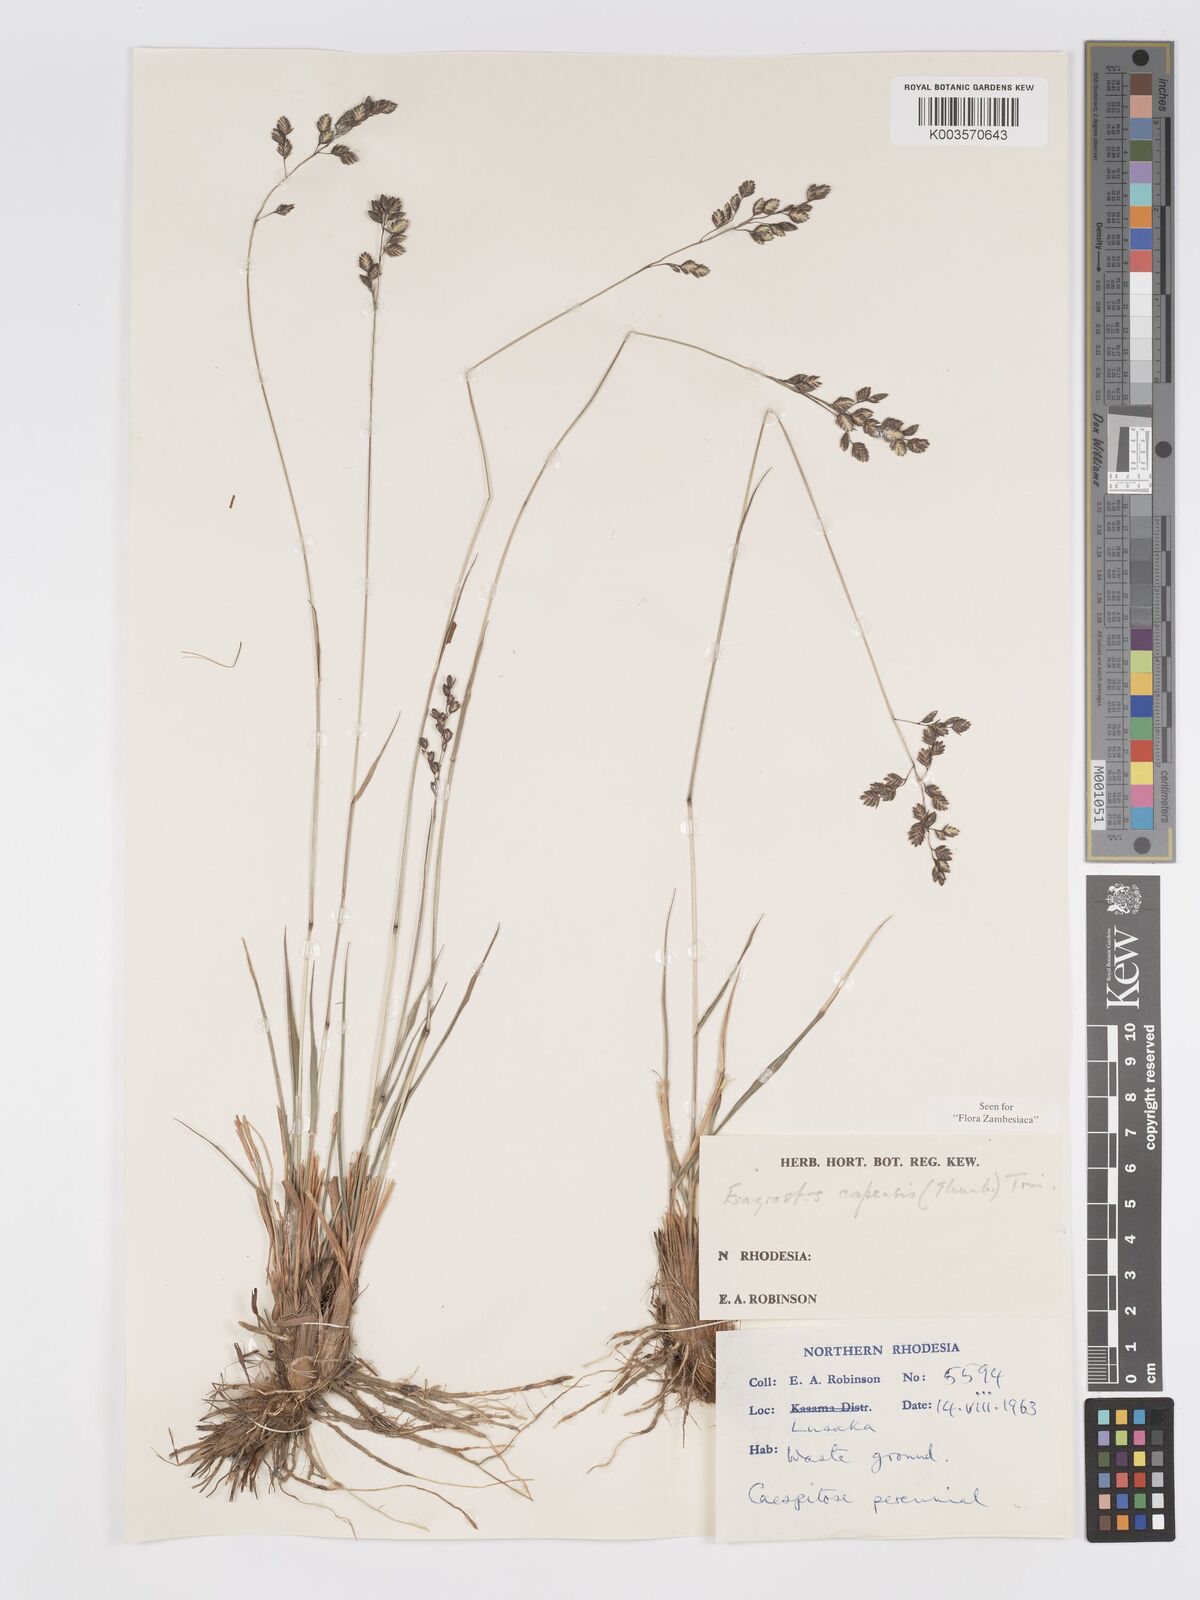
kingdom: Plantae
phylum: Tracheophyta
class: Liliopsida
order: Poales
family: Poaceae
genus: Eragrostis
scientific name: Eragrostis capensis
